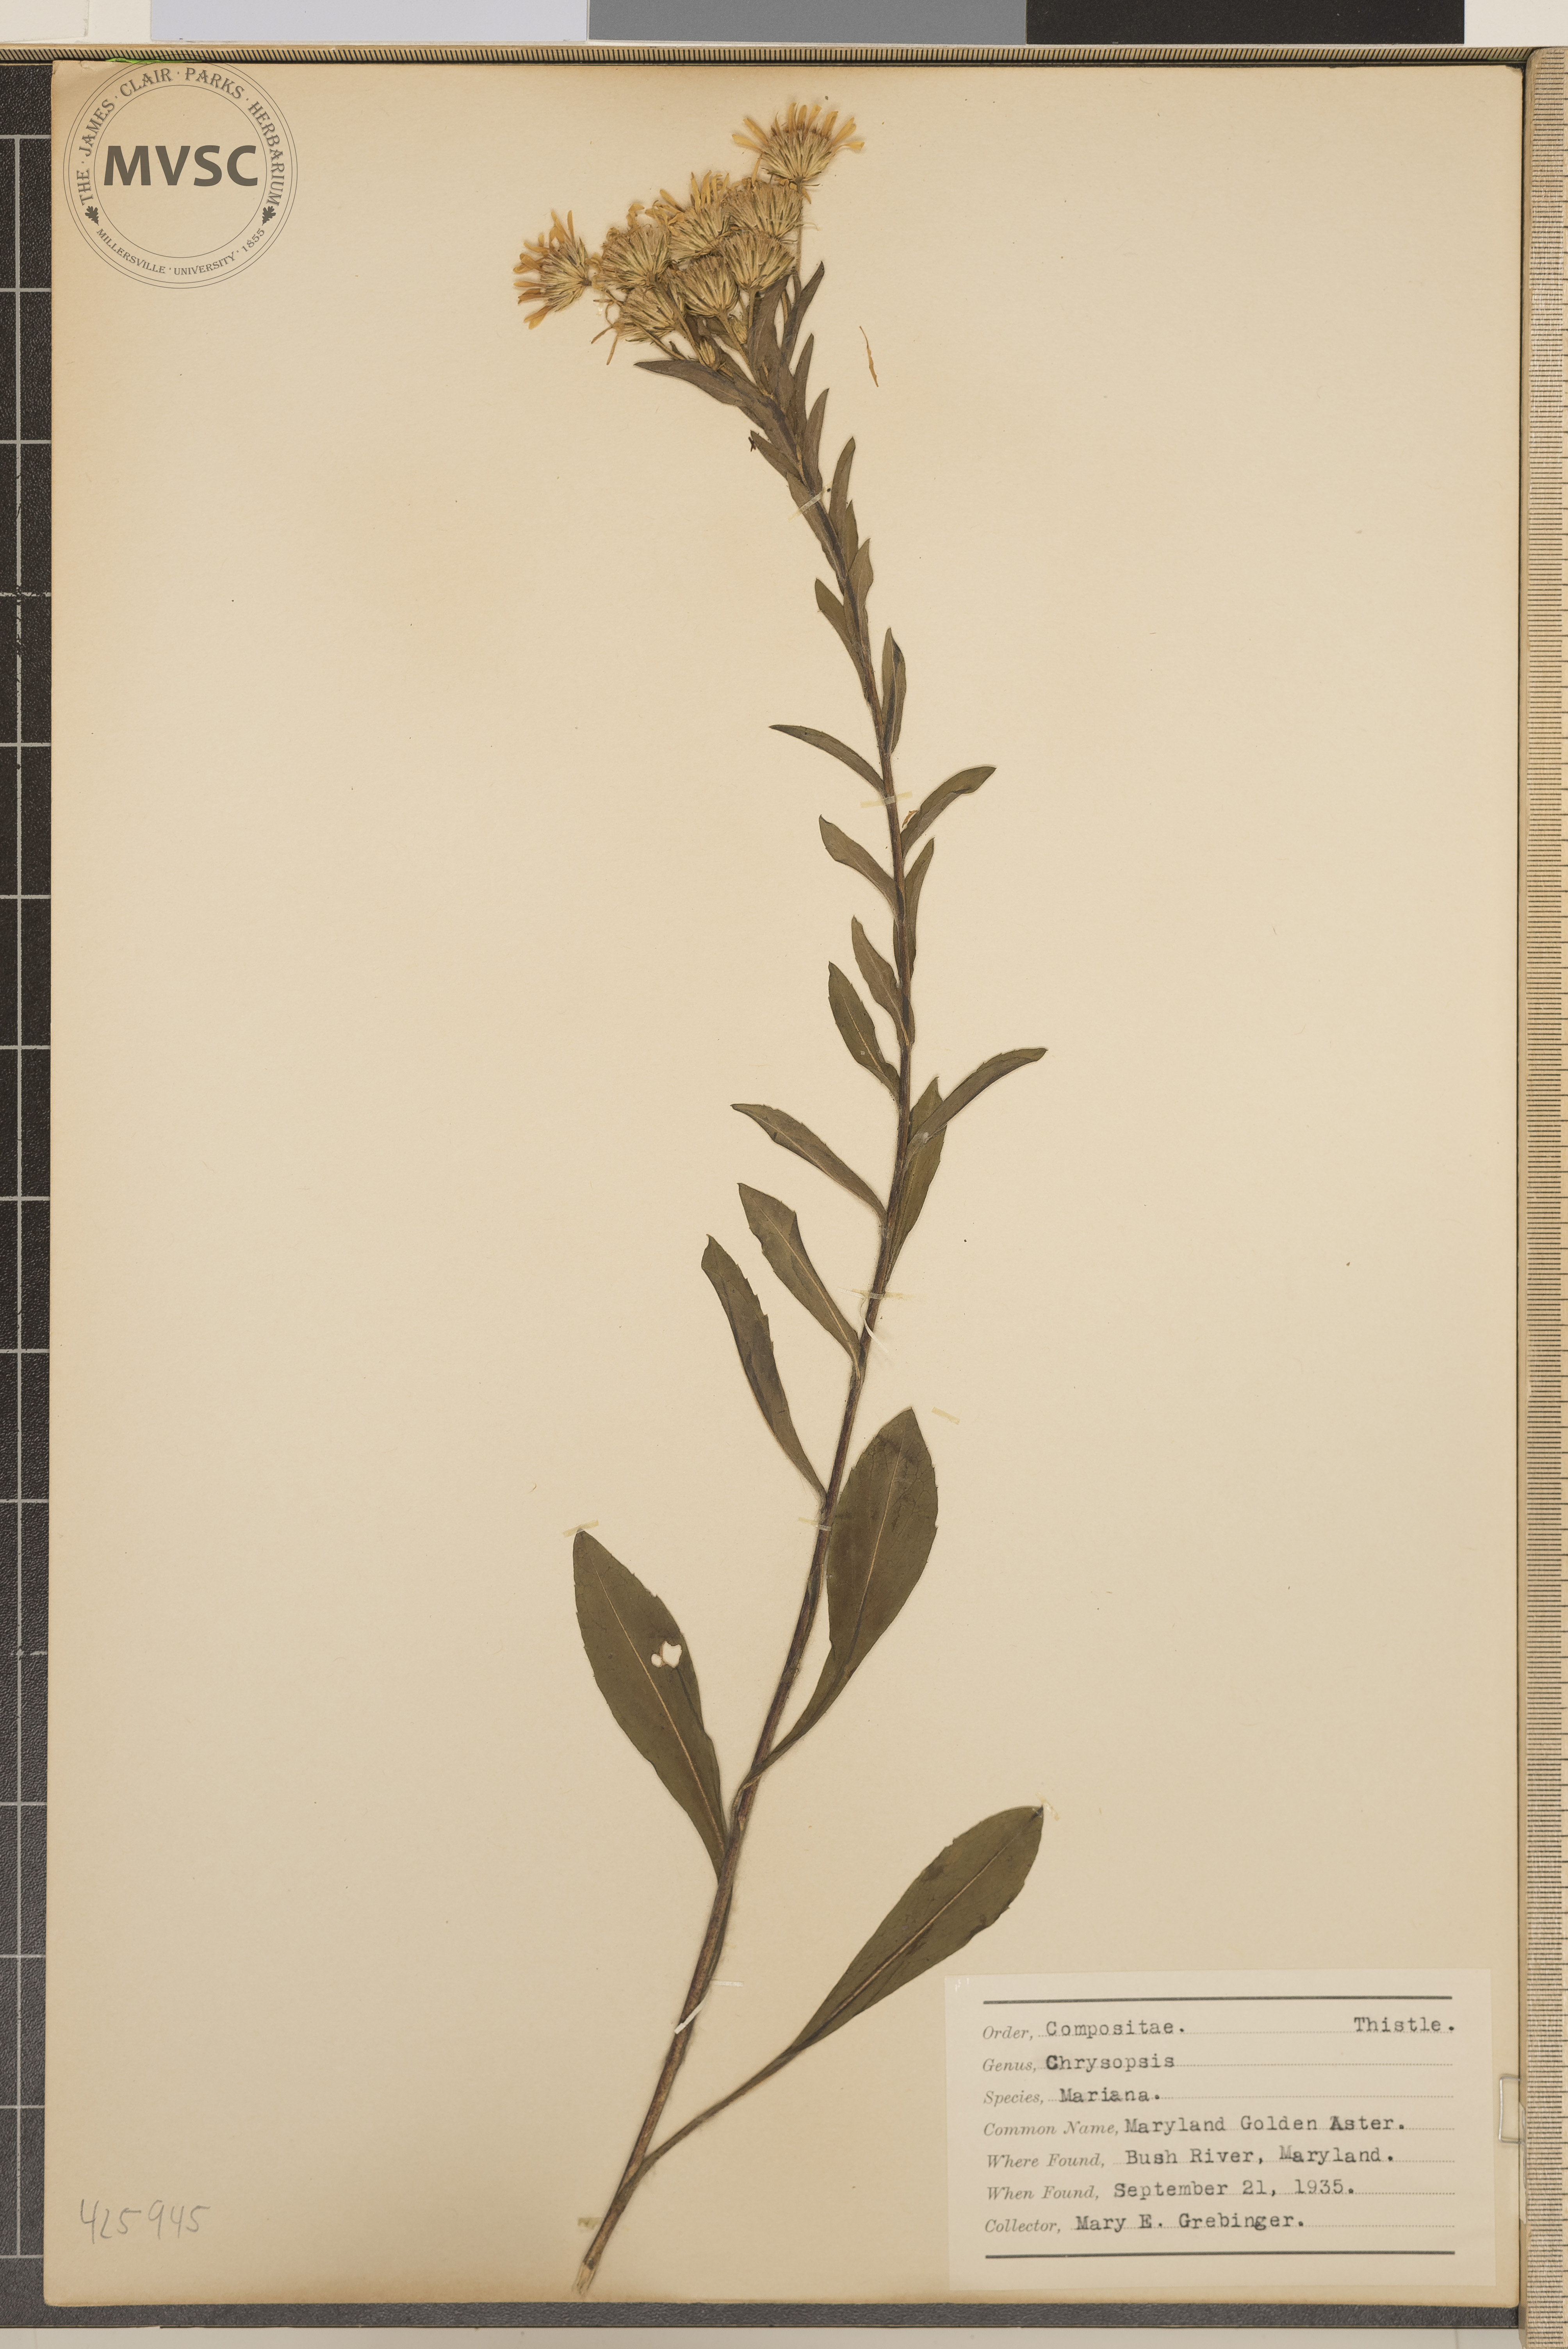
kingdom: Plantae
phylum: Tracheophyta
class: Magnoliopsida
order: Asterales
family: Asteraceae
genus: Chrysopsis
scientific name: Chrysopsis mariana
